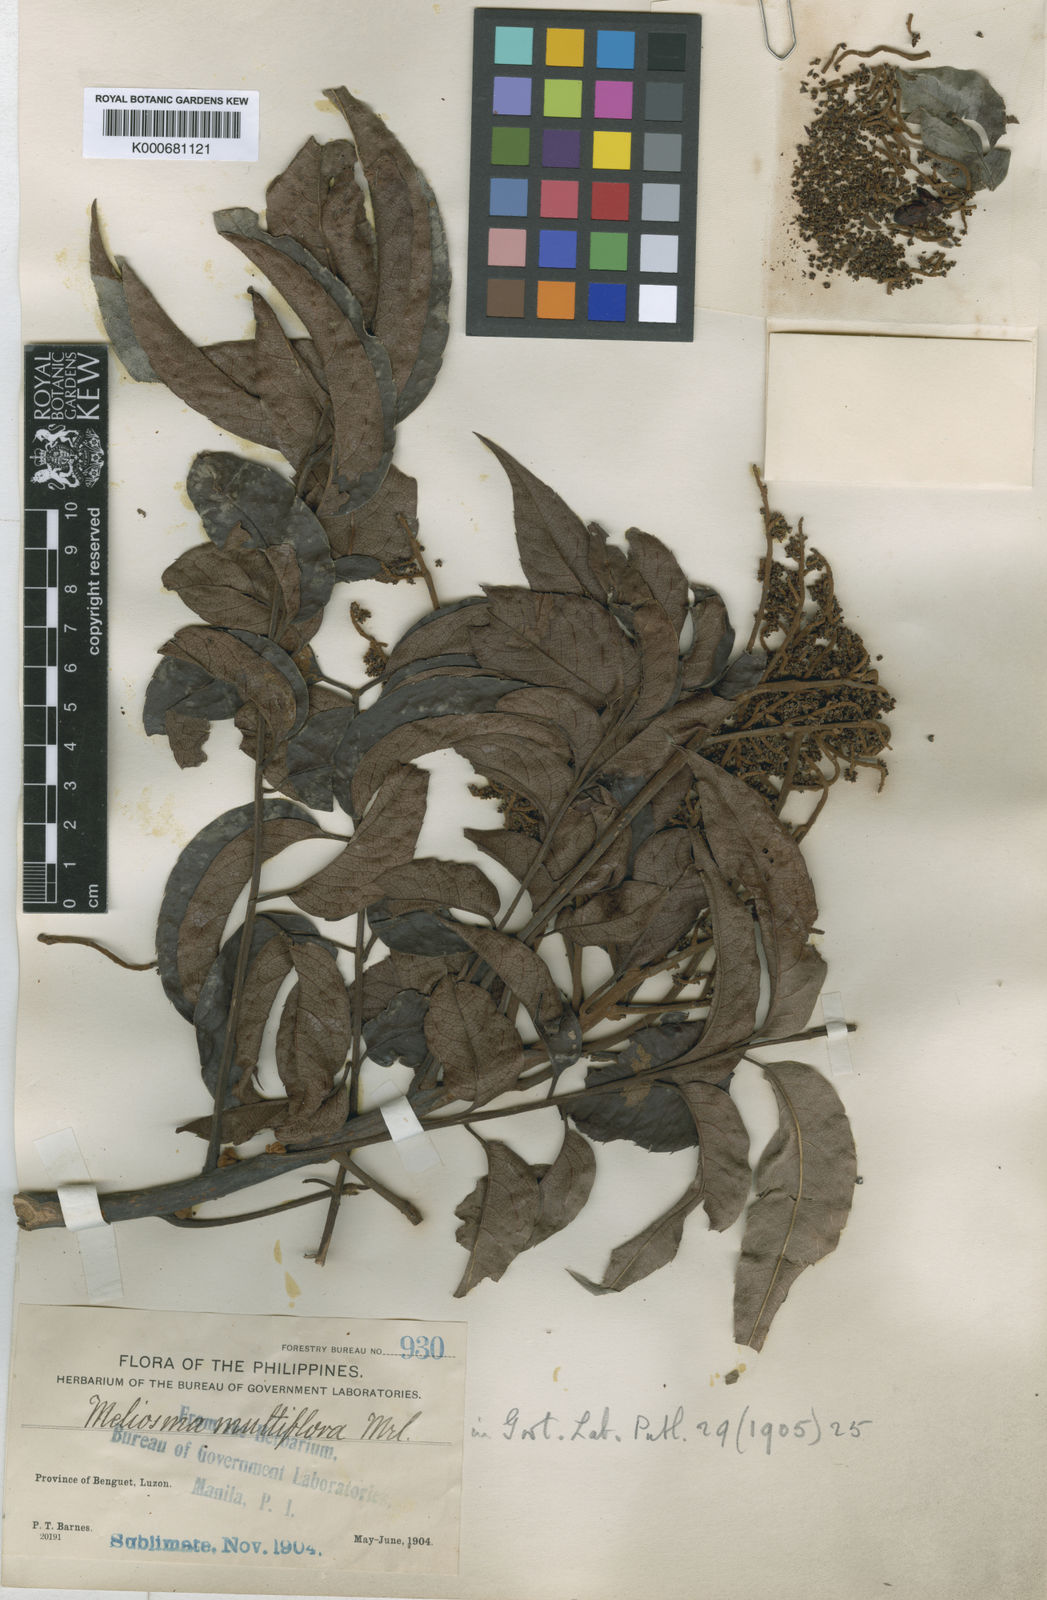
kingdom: Plantae
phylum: Tracheophyta
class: Magnoliopsida
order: Proteales
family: Sabiaceae
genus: Meliosma
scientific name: Meliosma pinnata
